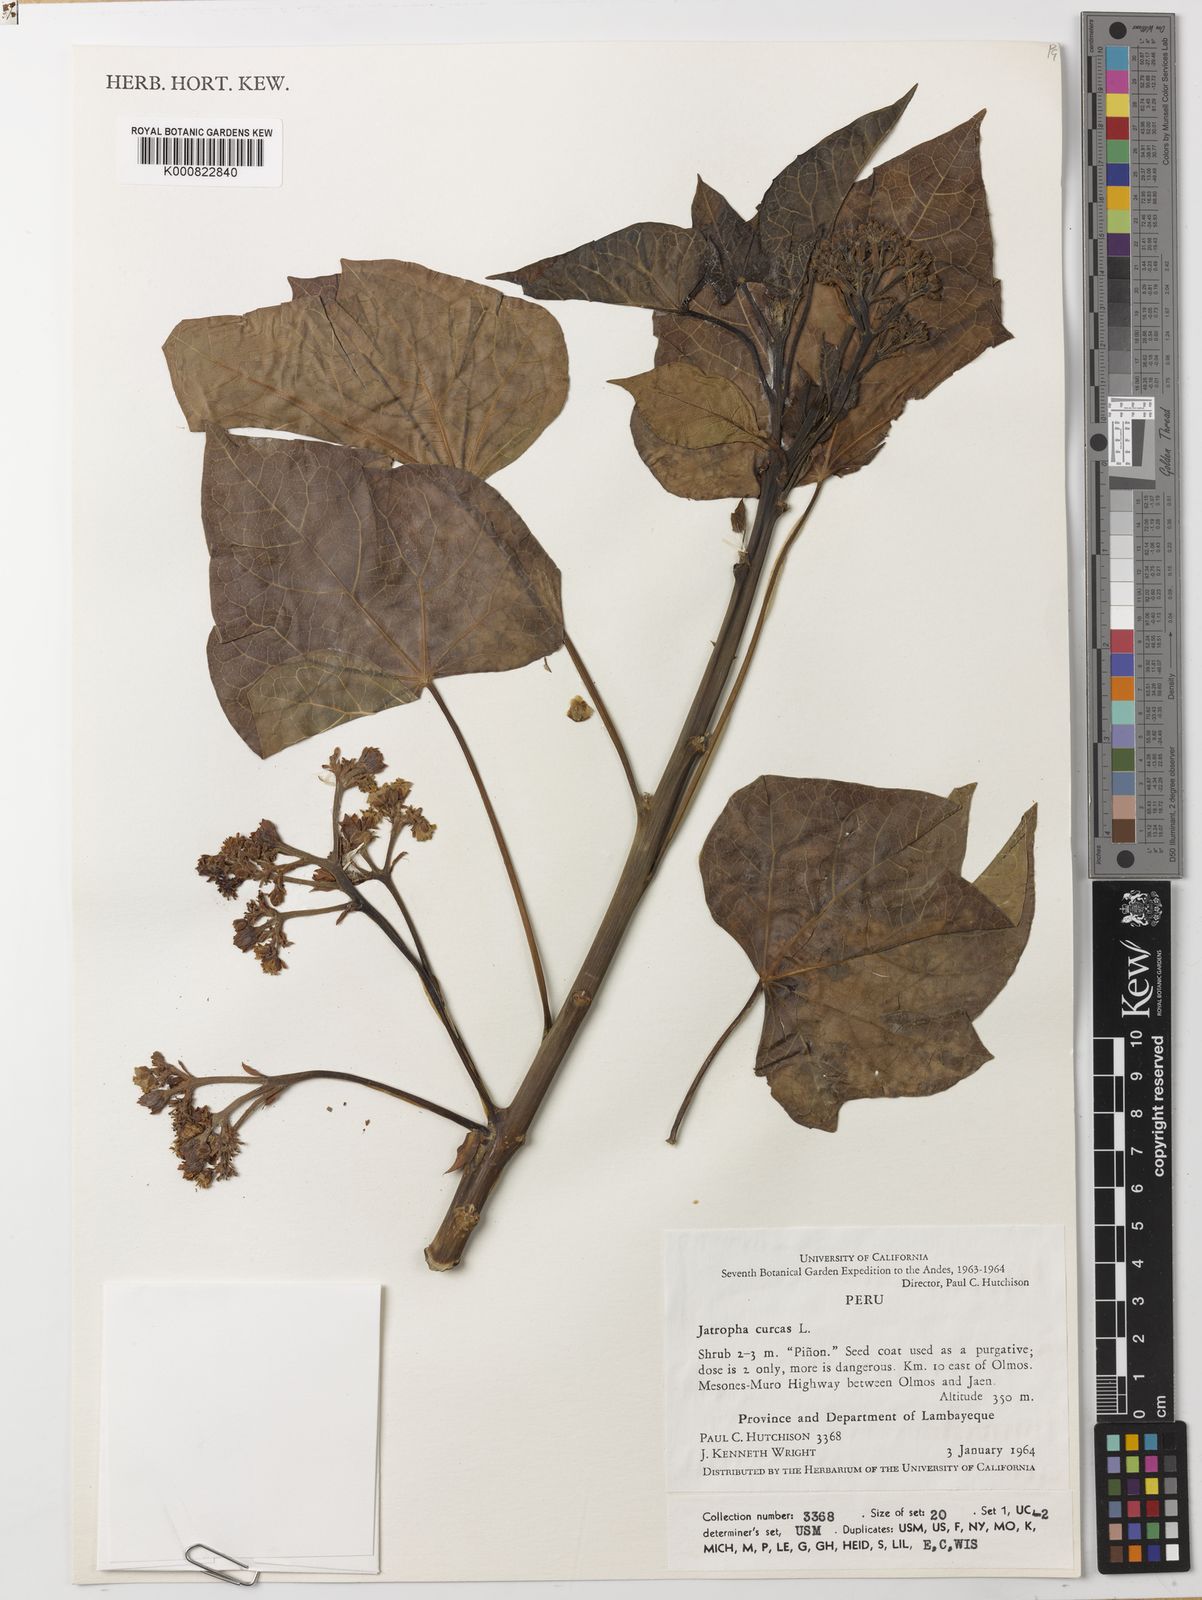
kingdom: Plantae
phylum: Tracheophyta
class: Magnoliopsida
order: Malpighiales
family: Euphorbiaceae
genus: Jatropha
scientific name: Jatropha curcas
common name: Barbados nut
